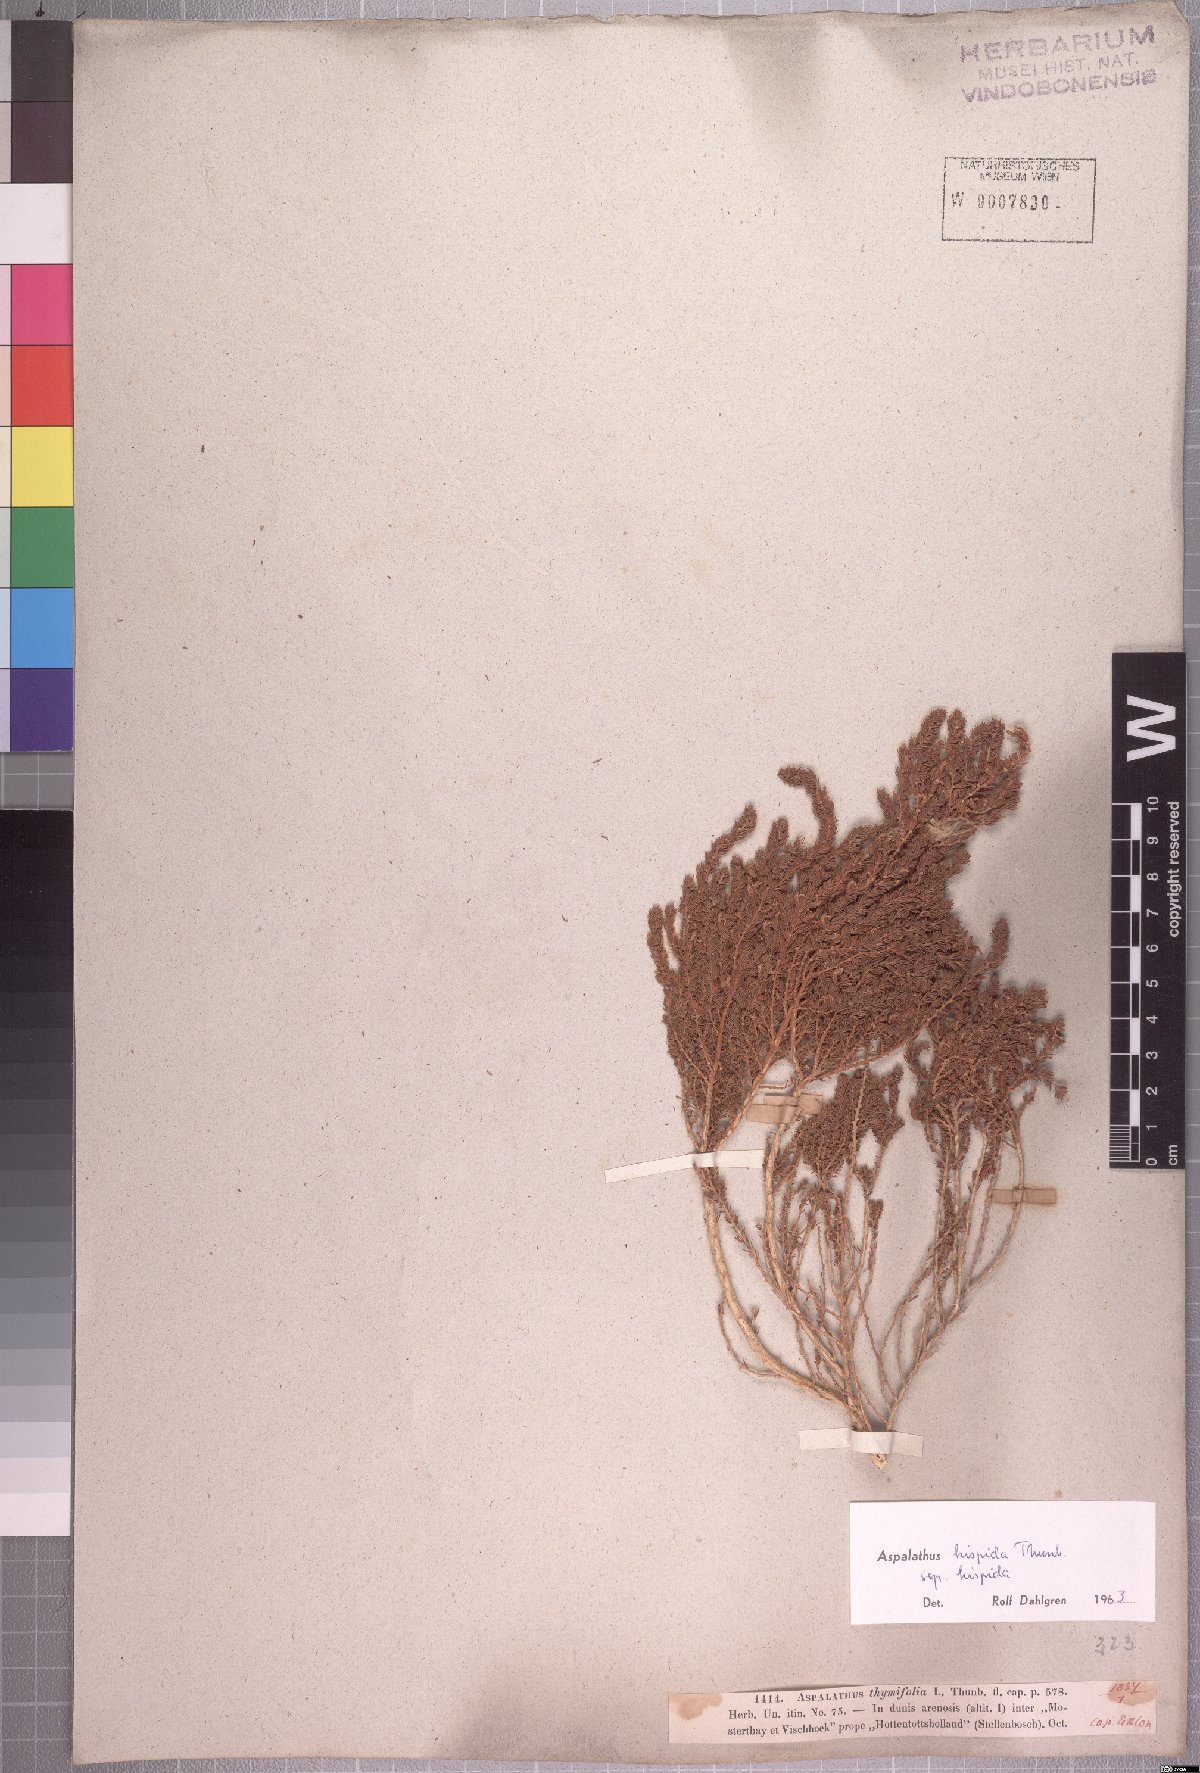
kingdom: Plantae
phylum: Tracheophyta
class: Magnoliopsida
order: Fabales
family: Fabaceae
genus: Aspalathus
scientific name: Aspalathus hispida
